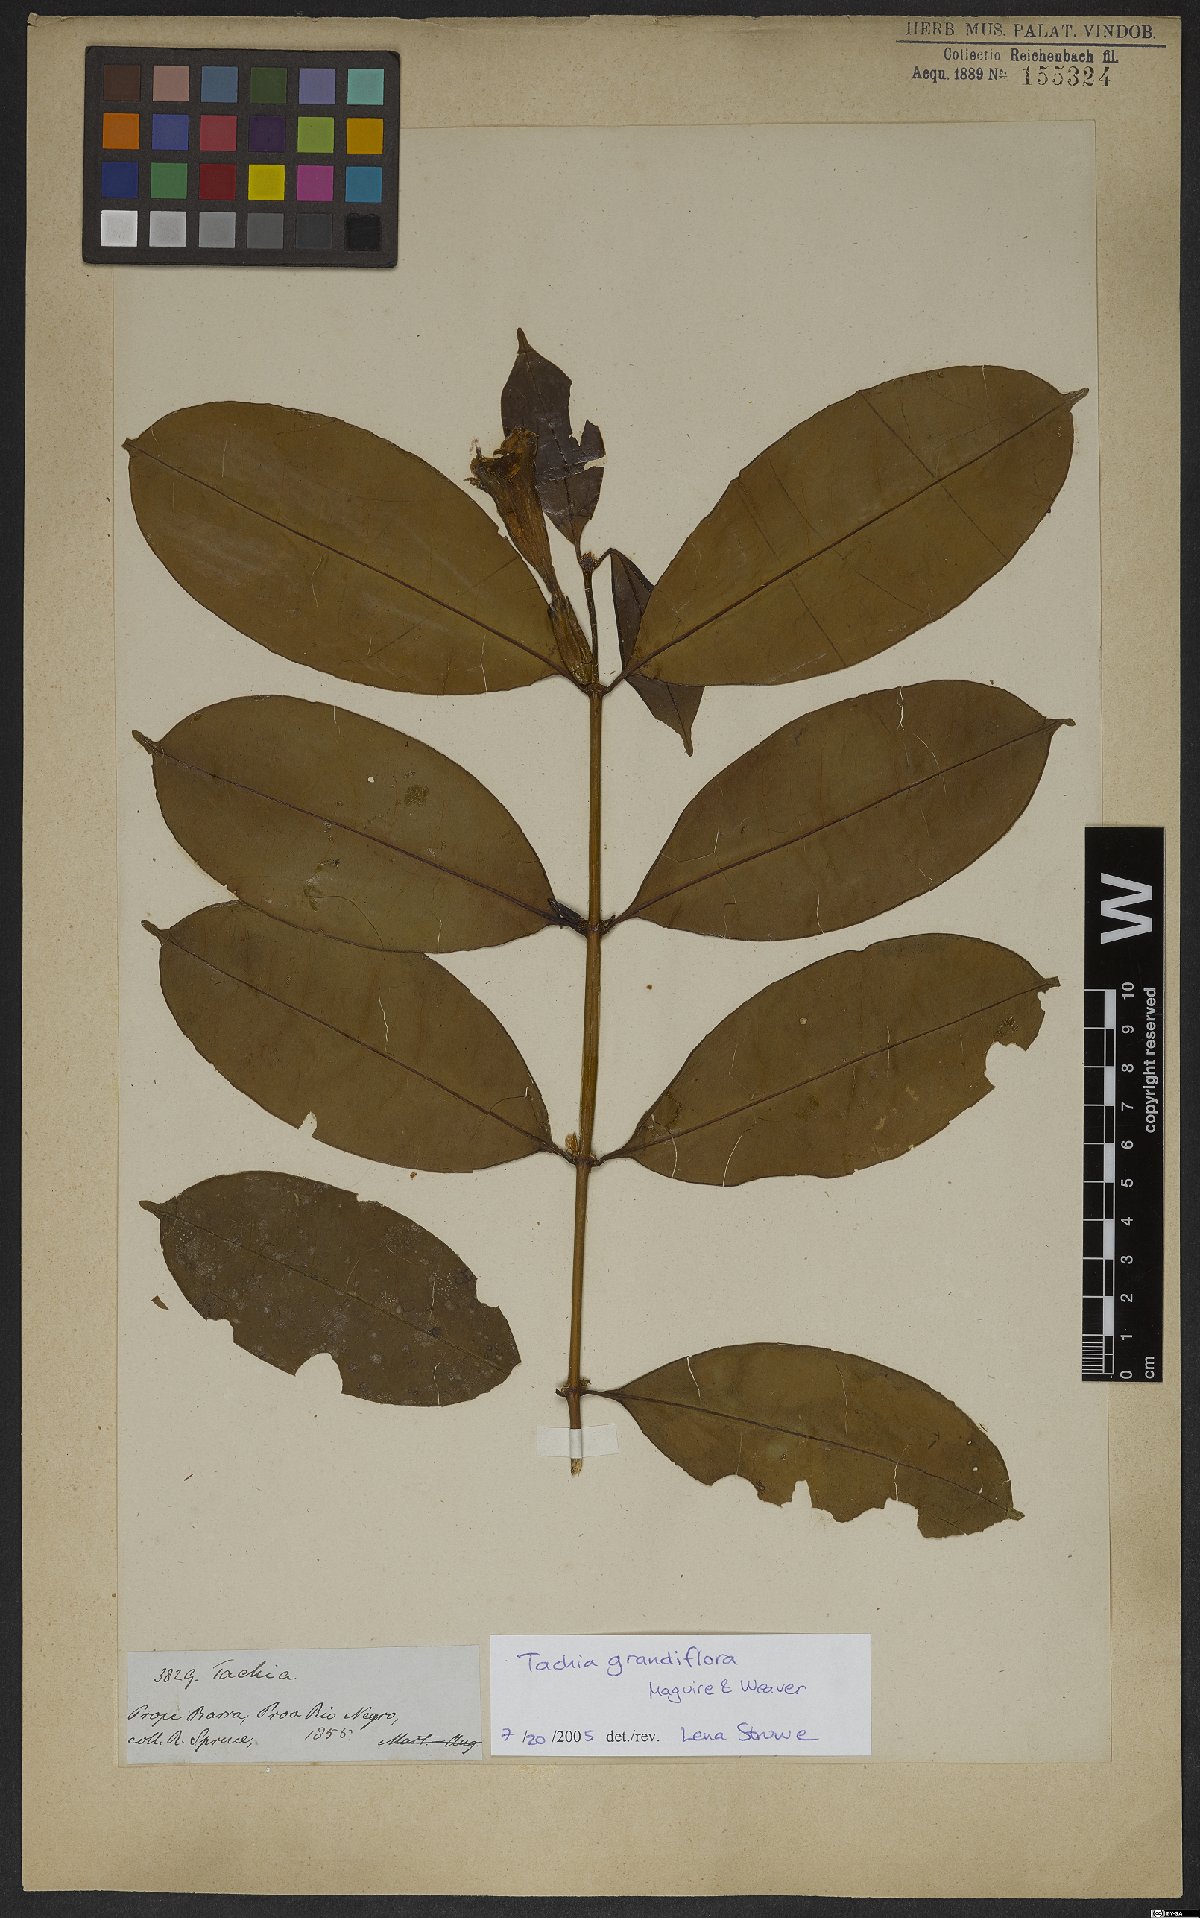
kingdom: Plantae
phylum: Tracheophyta
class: Magnoliopsida
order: Gentianales
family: Gentianaceae
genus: Tachia
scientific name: Tachia grandiflora
